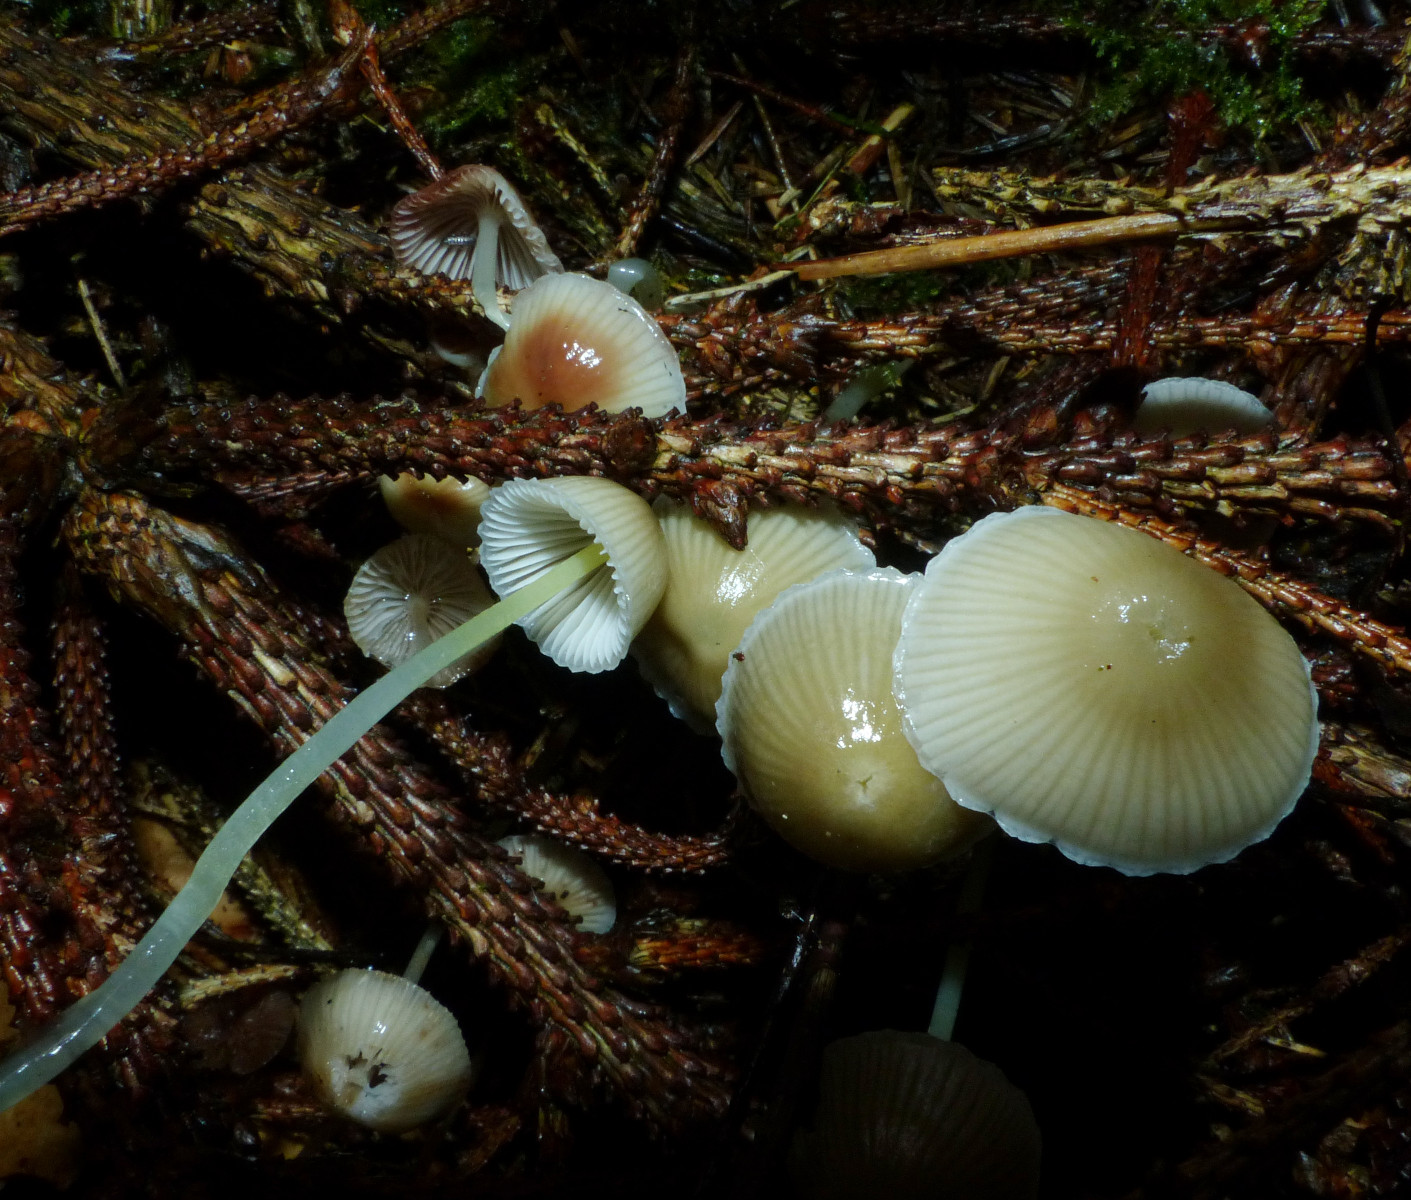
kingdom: Fungi
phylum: Basidiomycota
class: Agaricomycetes
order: Agaricales
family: Mycenaceae
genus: Mycena
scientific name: Mycena epipterygia
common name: gulstokket huesvamp
